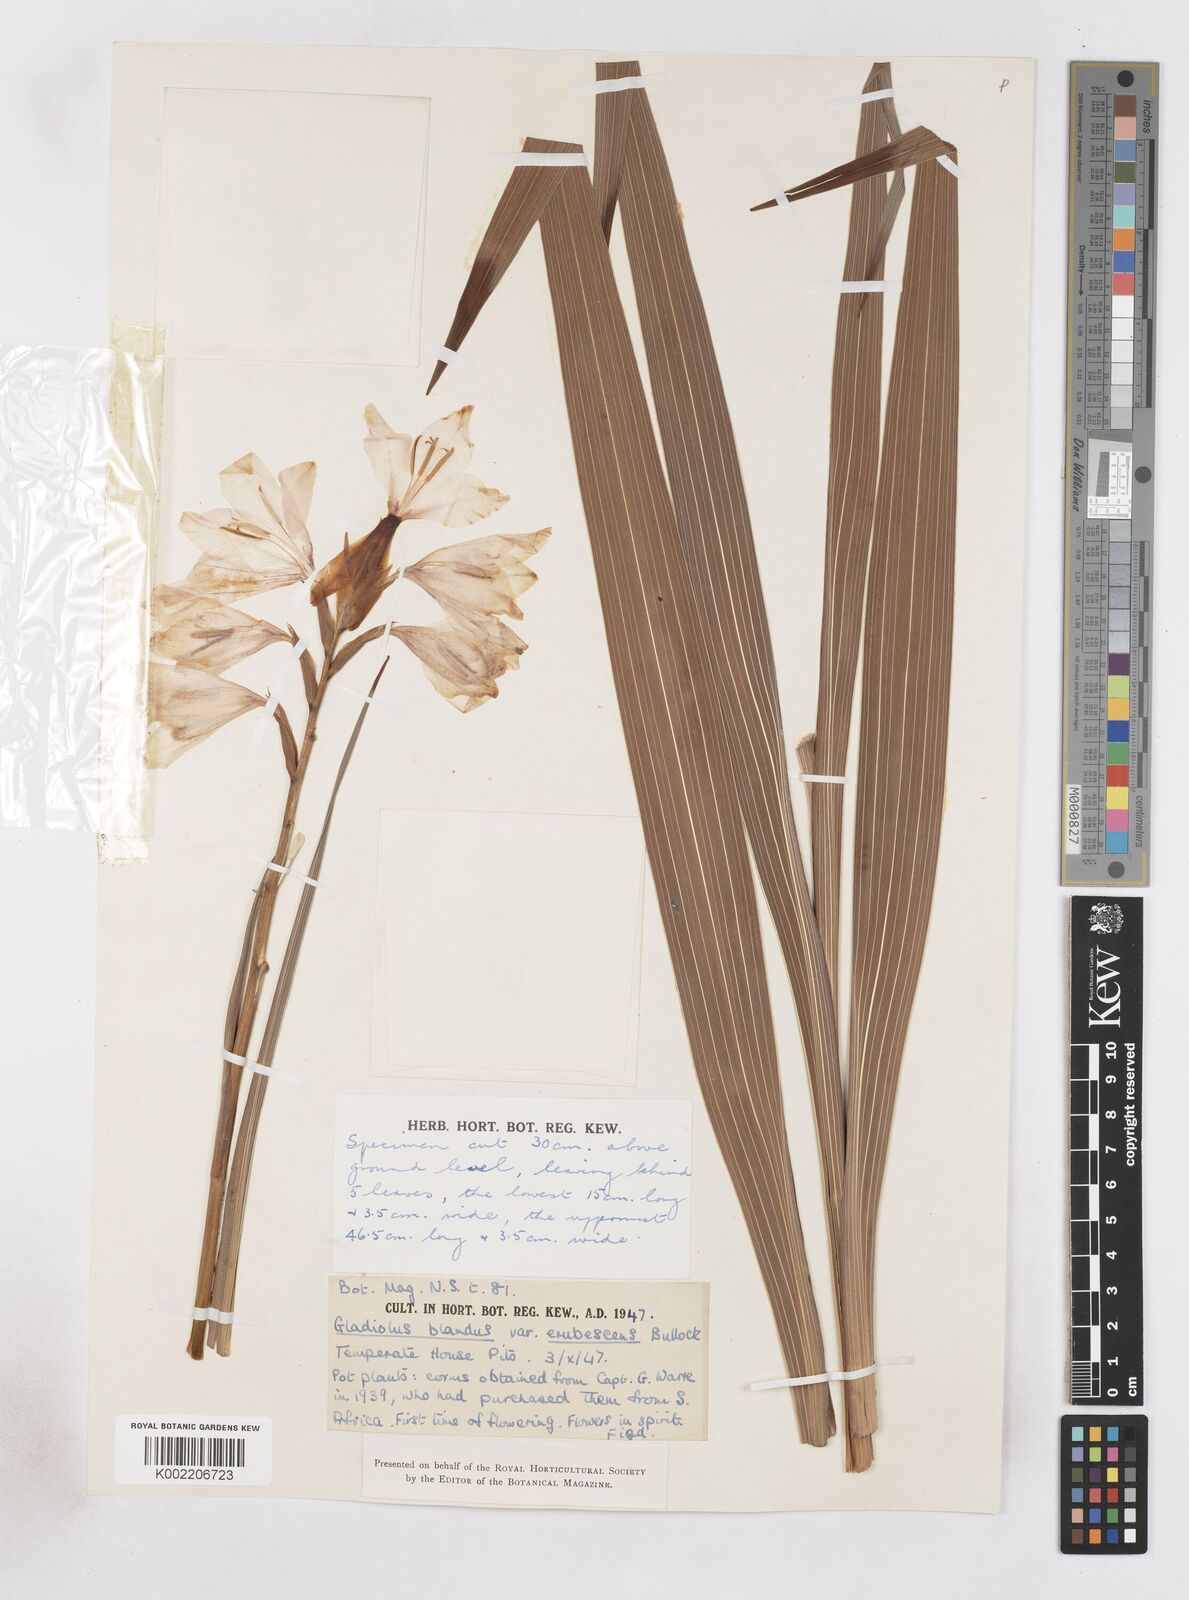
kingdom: Plantae
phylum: Tracheophyta
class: Liliopsida
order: Asparagales
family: Iridaceae
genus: Gladiolus
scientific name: Gladiolus oppositiflorus
